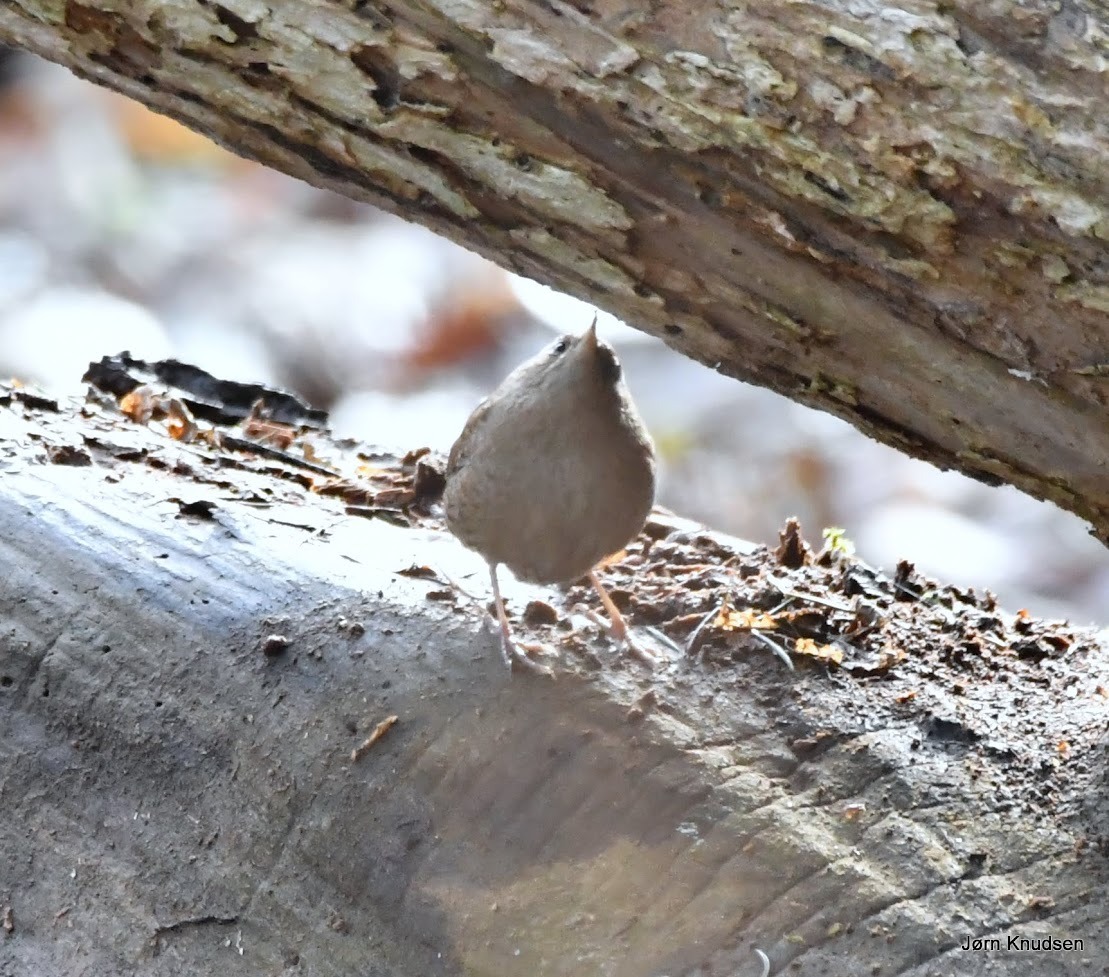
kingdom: Animalia
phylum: Chordata
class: Aves
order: Passeriformes
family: Troglodytidae
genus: Troglodytes
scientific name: Troglodytes troglodytes
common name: Gærdesmutte
